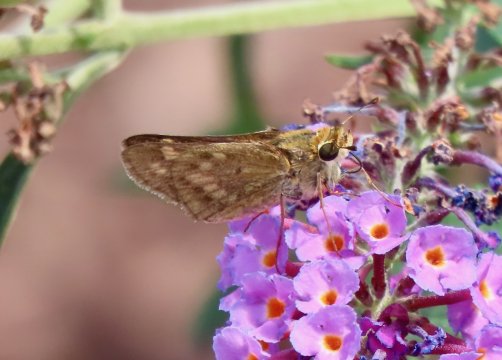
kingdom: Animalia
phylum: Arthropoda
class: Insecta
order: Lepidoptera
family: Hesperiidae
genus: Hylephila
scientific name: Hylephila phyleus
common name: Fiery Skipper
